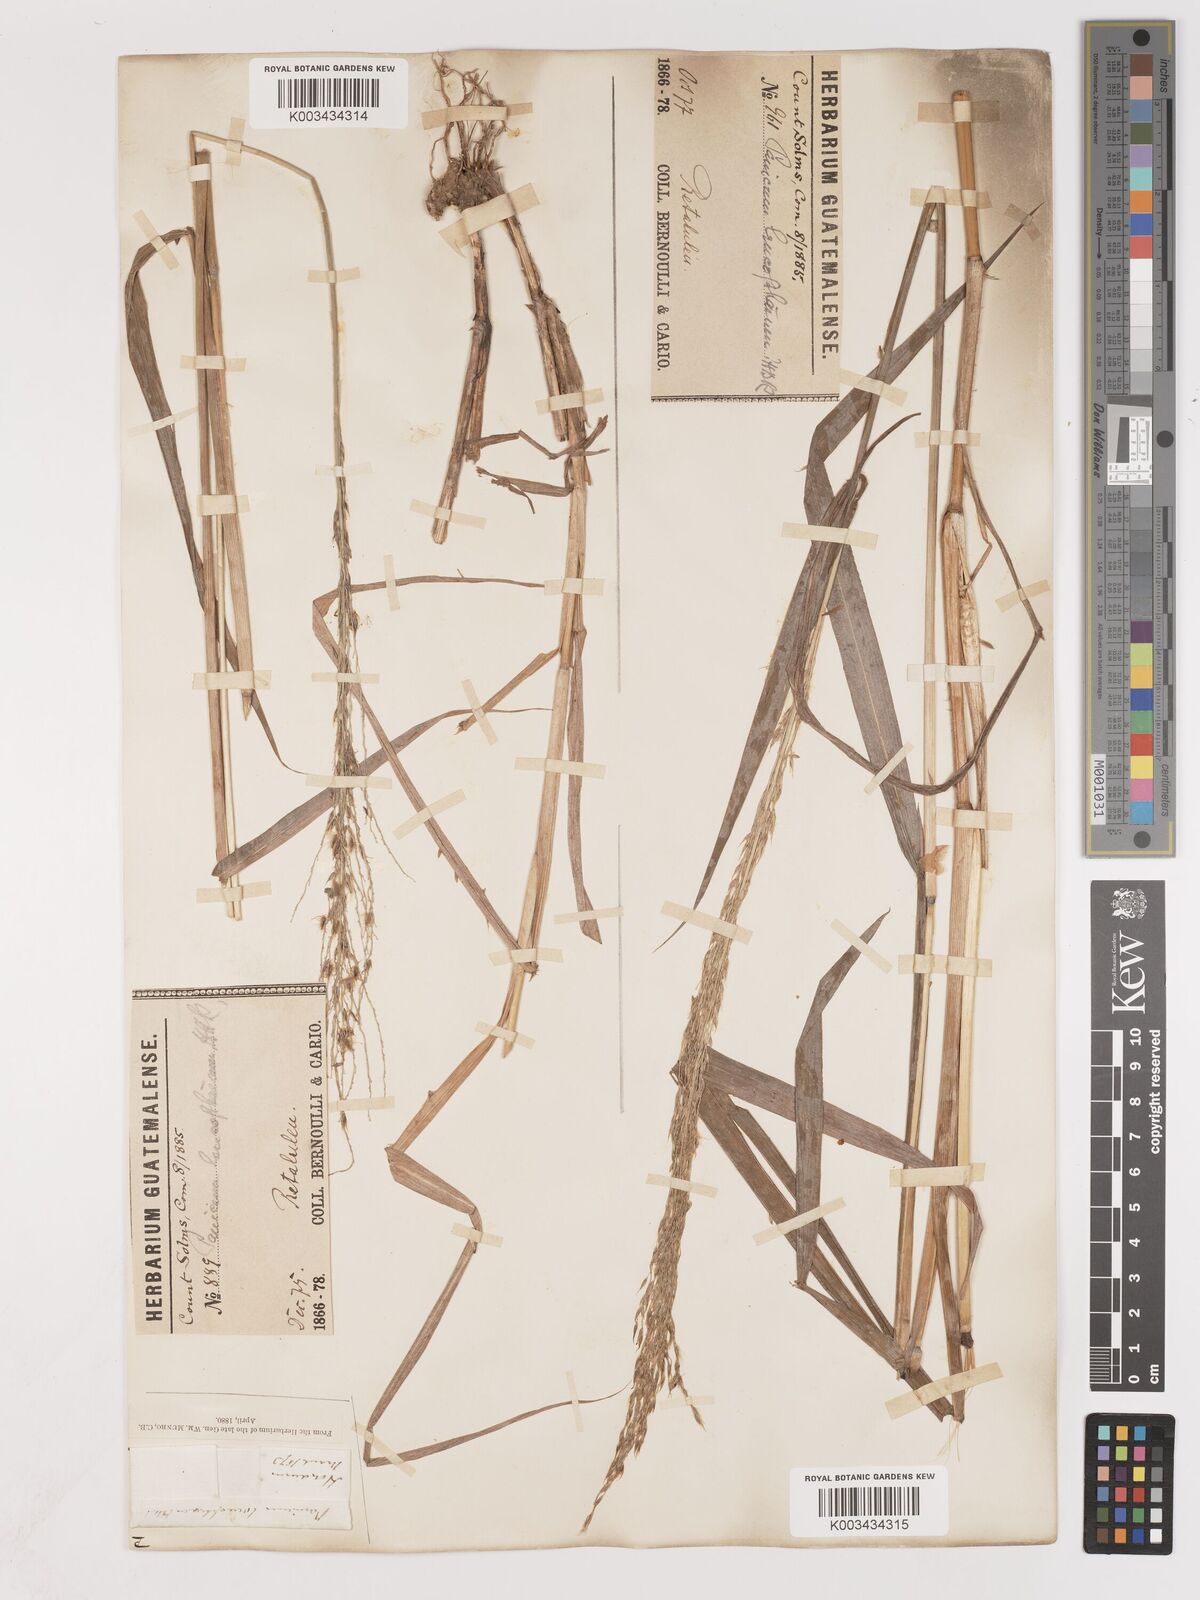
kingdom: Plantae
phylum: Tracheophyta
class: Liliopsida
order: Poales
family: Poaceae
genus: Digitaria
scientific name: Digitaria insularis
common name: Sourgrass
